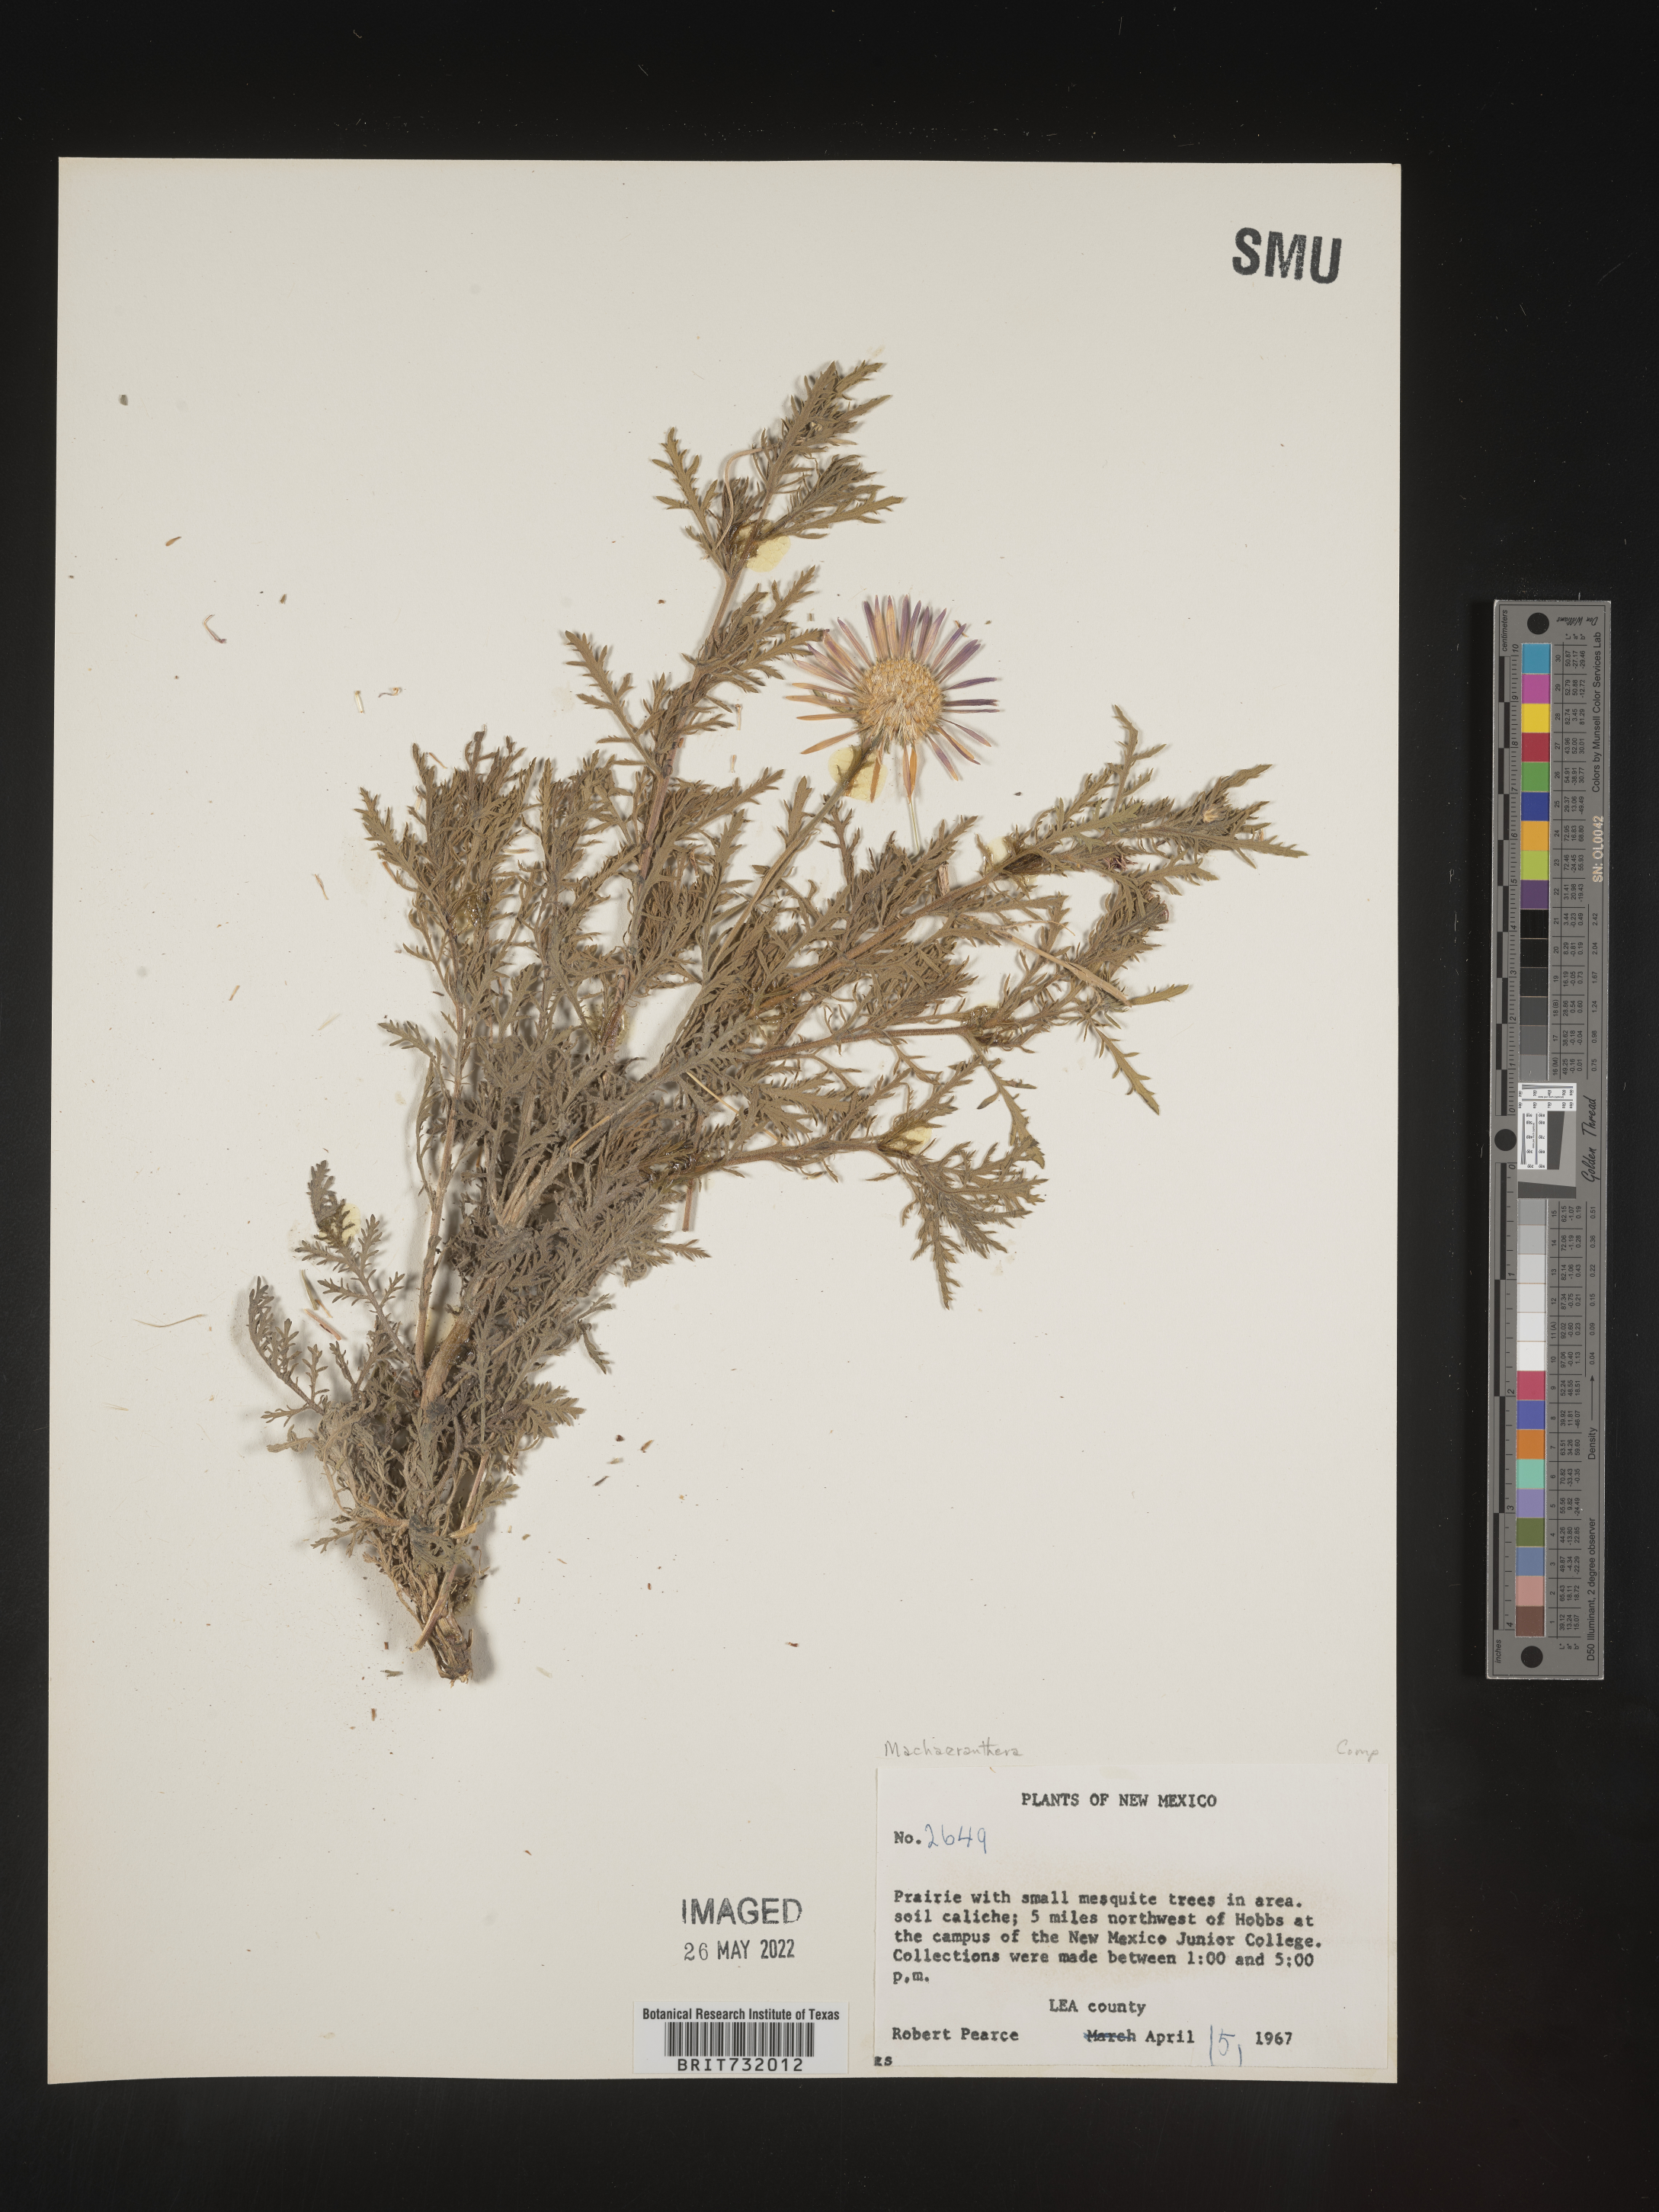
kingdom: Plantae
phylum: Tracheophyta
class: Magnoliopsida
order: Asterales
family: Asteraceae
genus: Machaeranthera
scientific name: Machaeranthera
